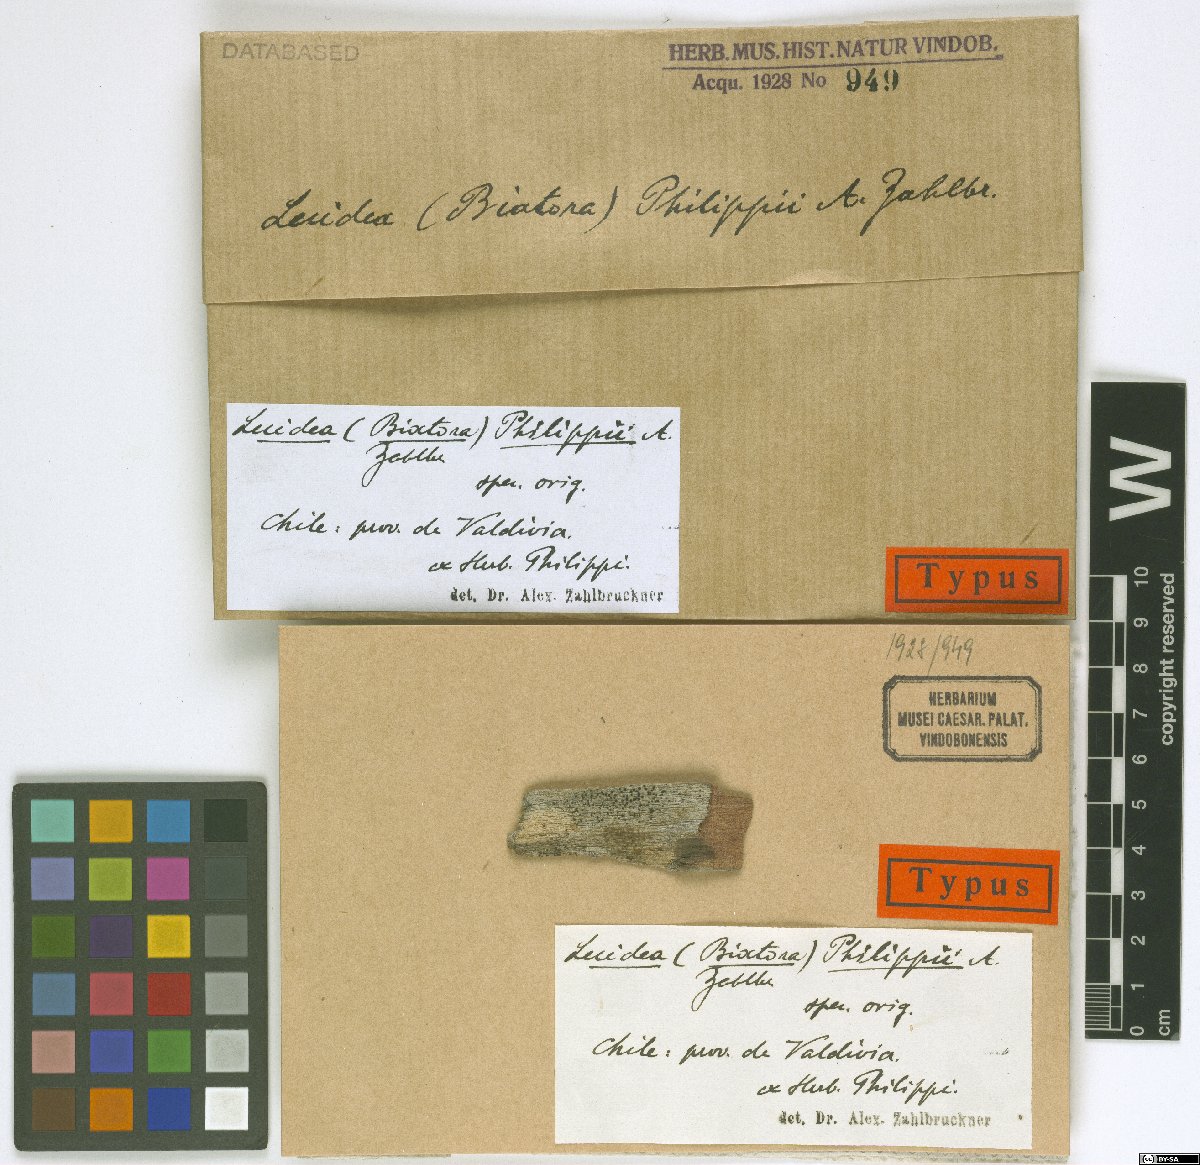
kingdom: Fungi
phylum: Ascomycota
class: Lecanoromycetes
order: Lecideales
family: Lecideaceae
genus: Lecidea
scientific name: Lecidea
